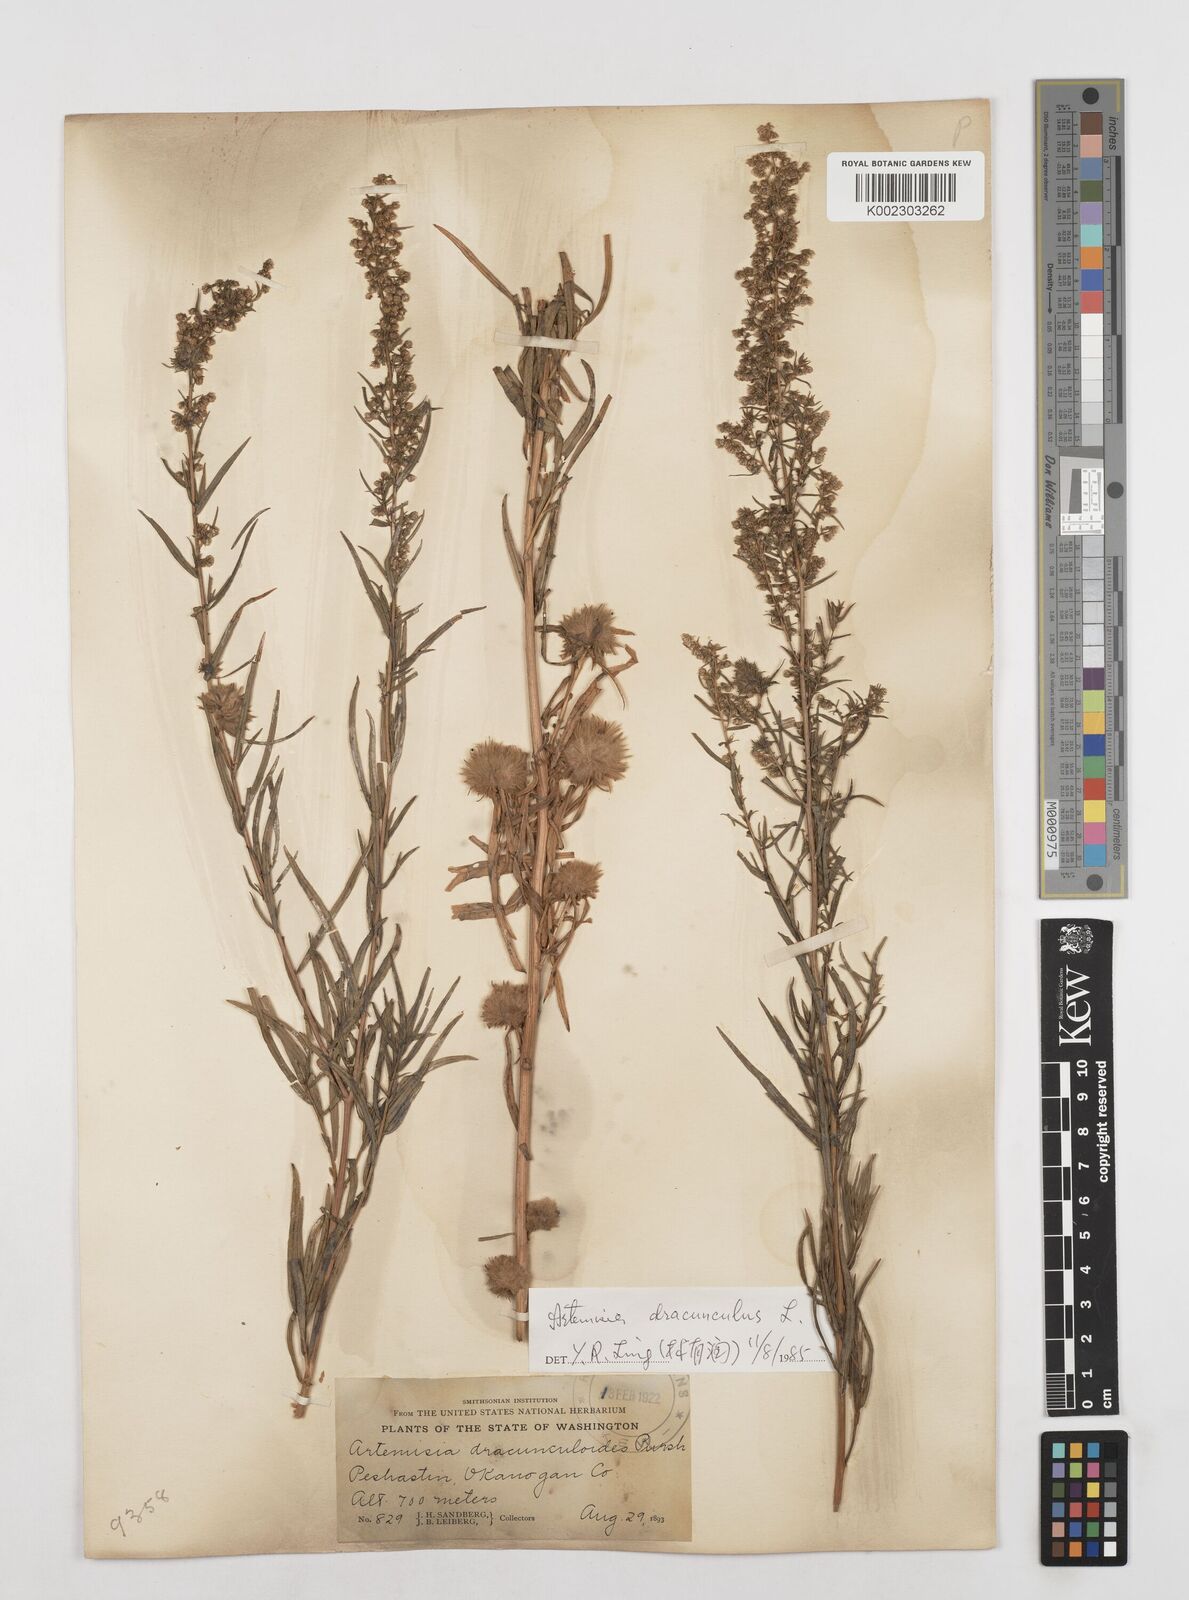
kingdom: Plantae
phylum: Tracheophyta
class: Magnoliopsida
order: Asterales
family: Asteraceae
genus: Artemisia
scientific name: Artemisia dracunculus
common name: Tarragon
